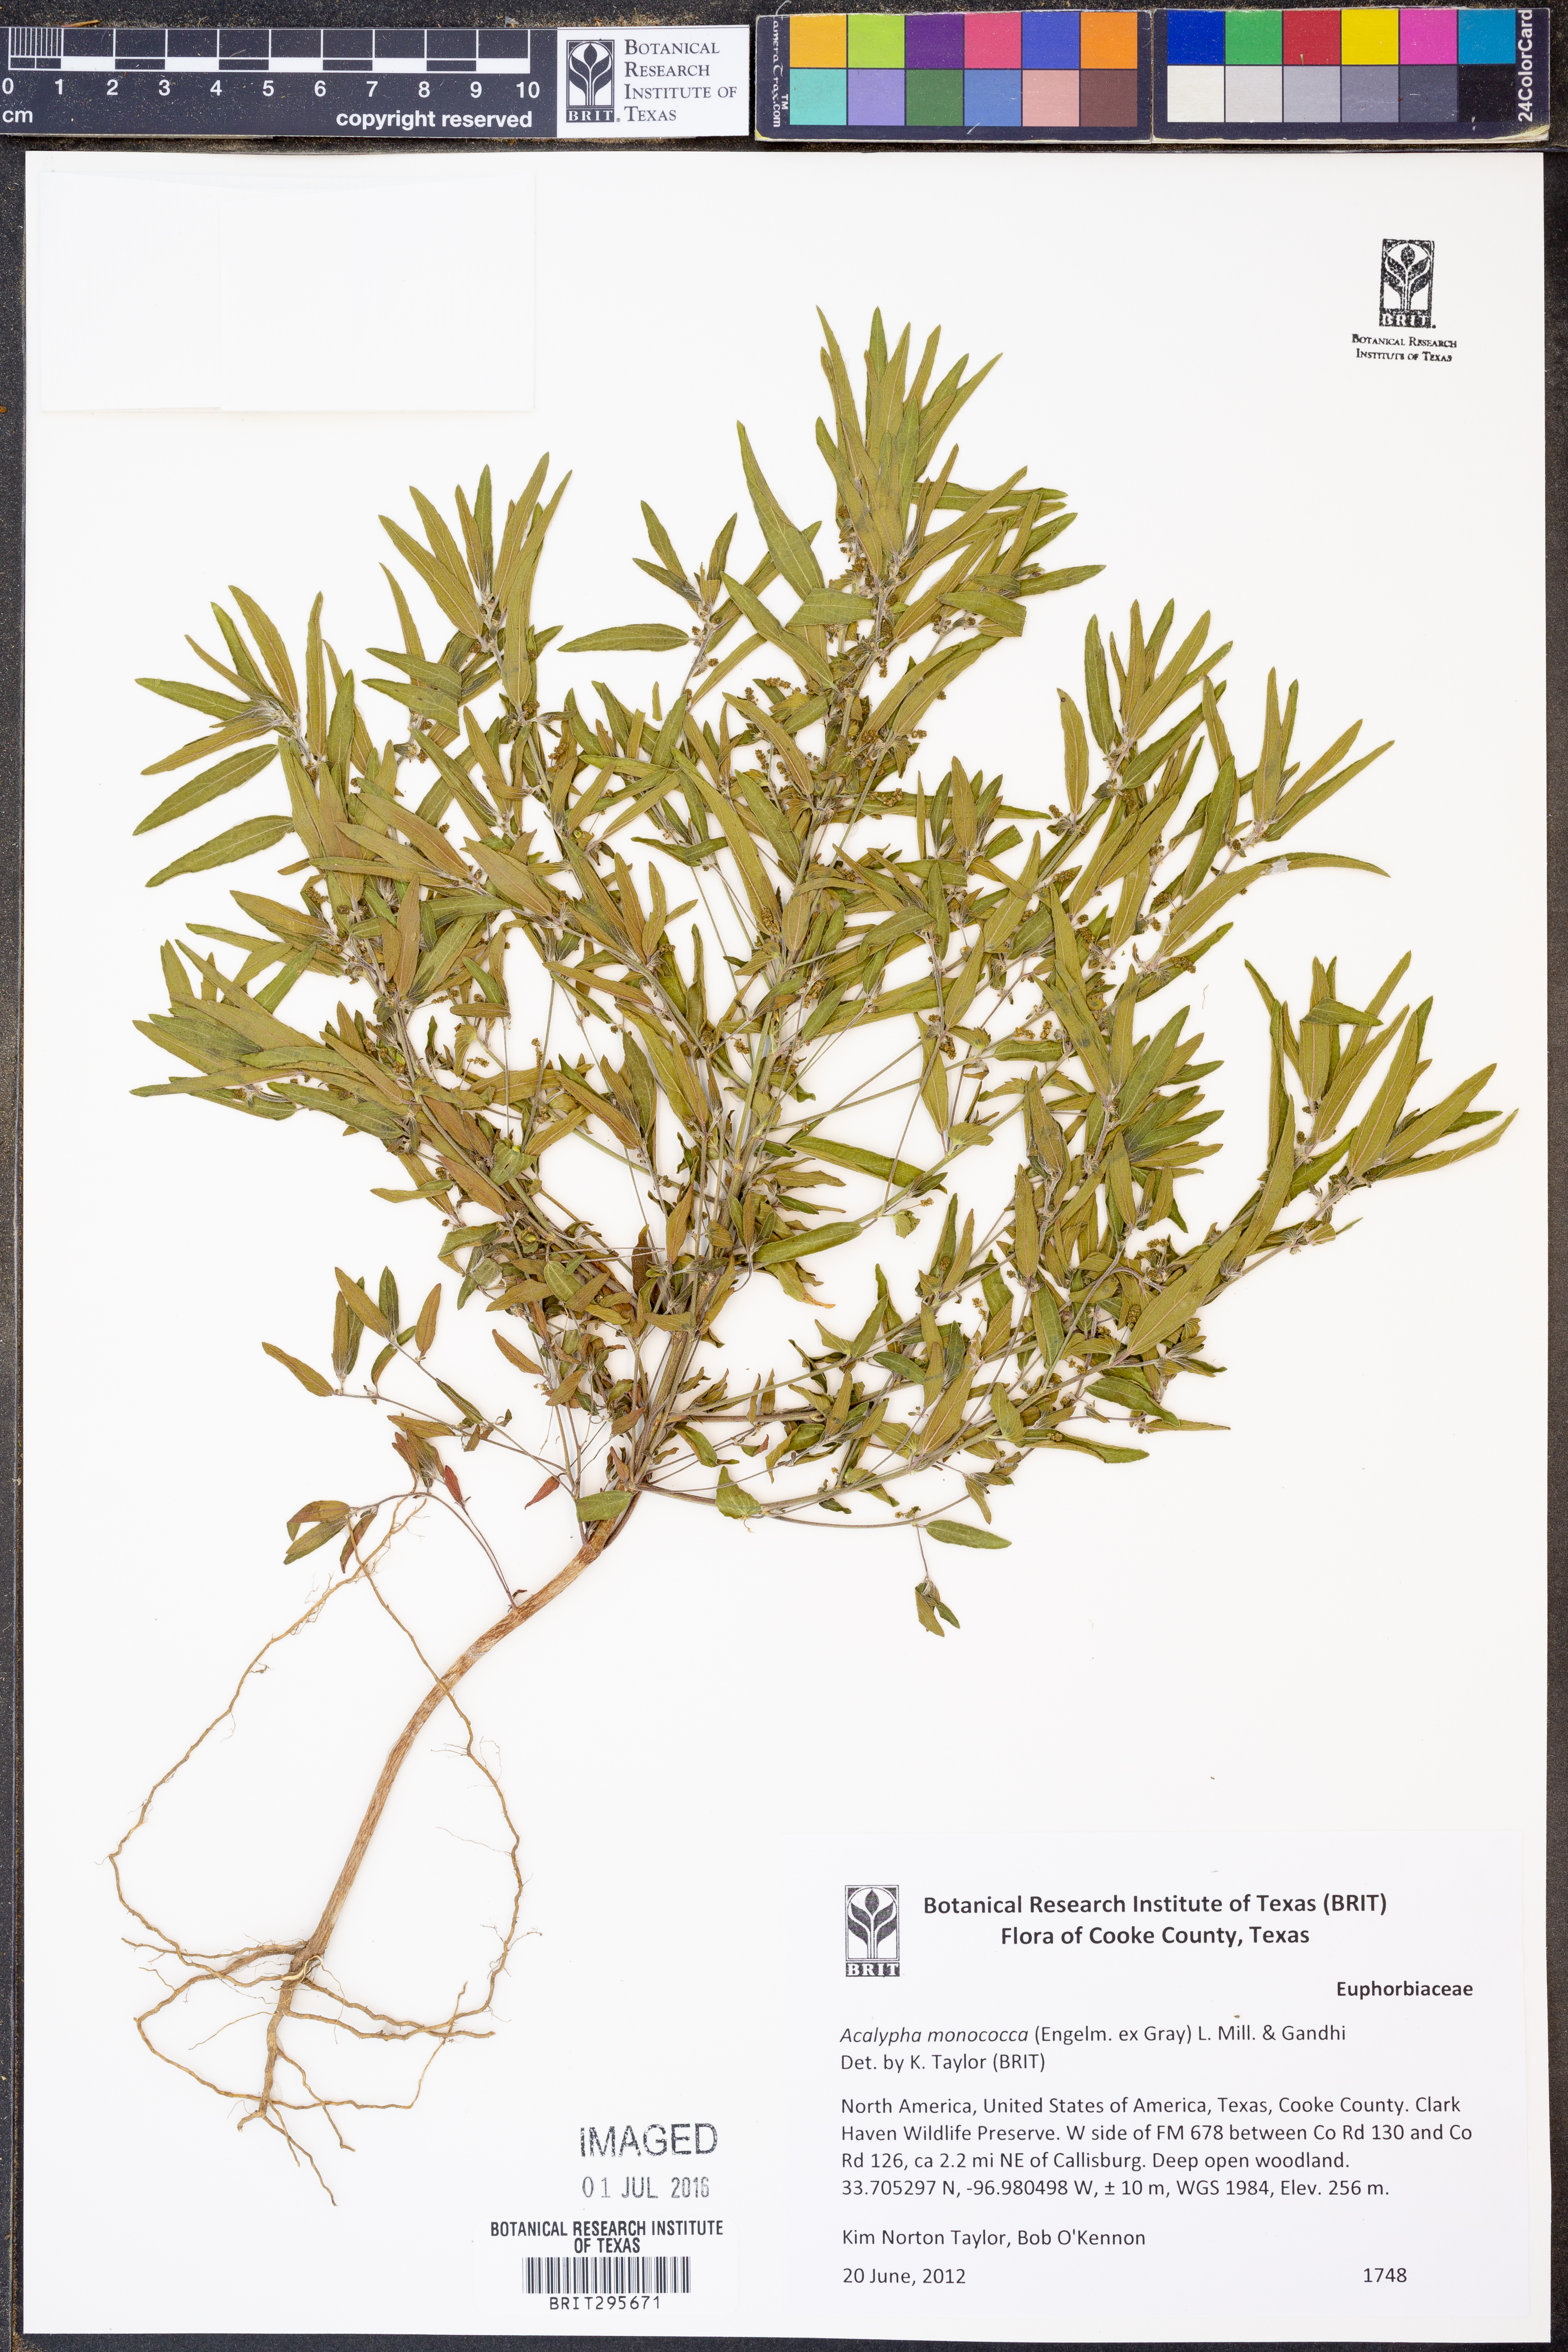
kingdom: Plantae
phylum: Tracheophyta
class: Magnoliopsida
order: Malpighiales
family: Euphorbiaceae
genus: Acalypha
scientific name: Acalypha monococca
